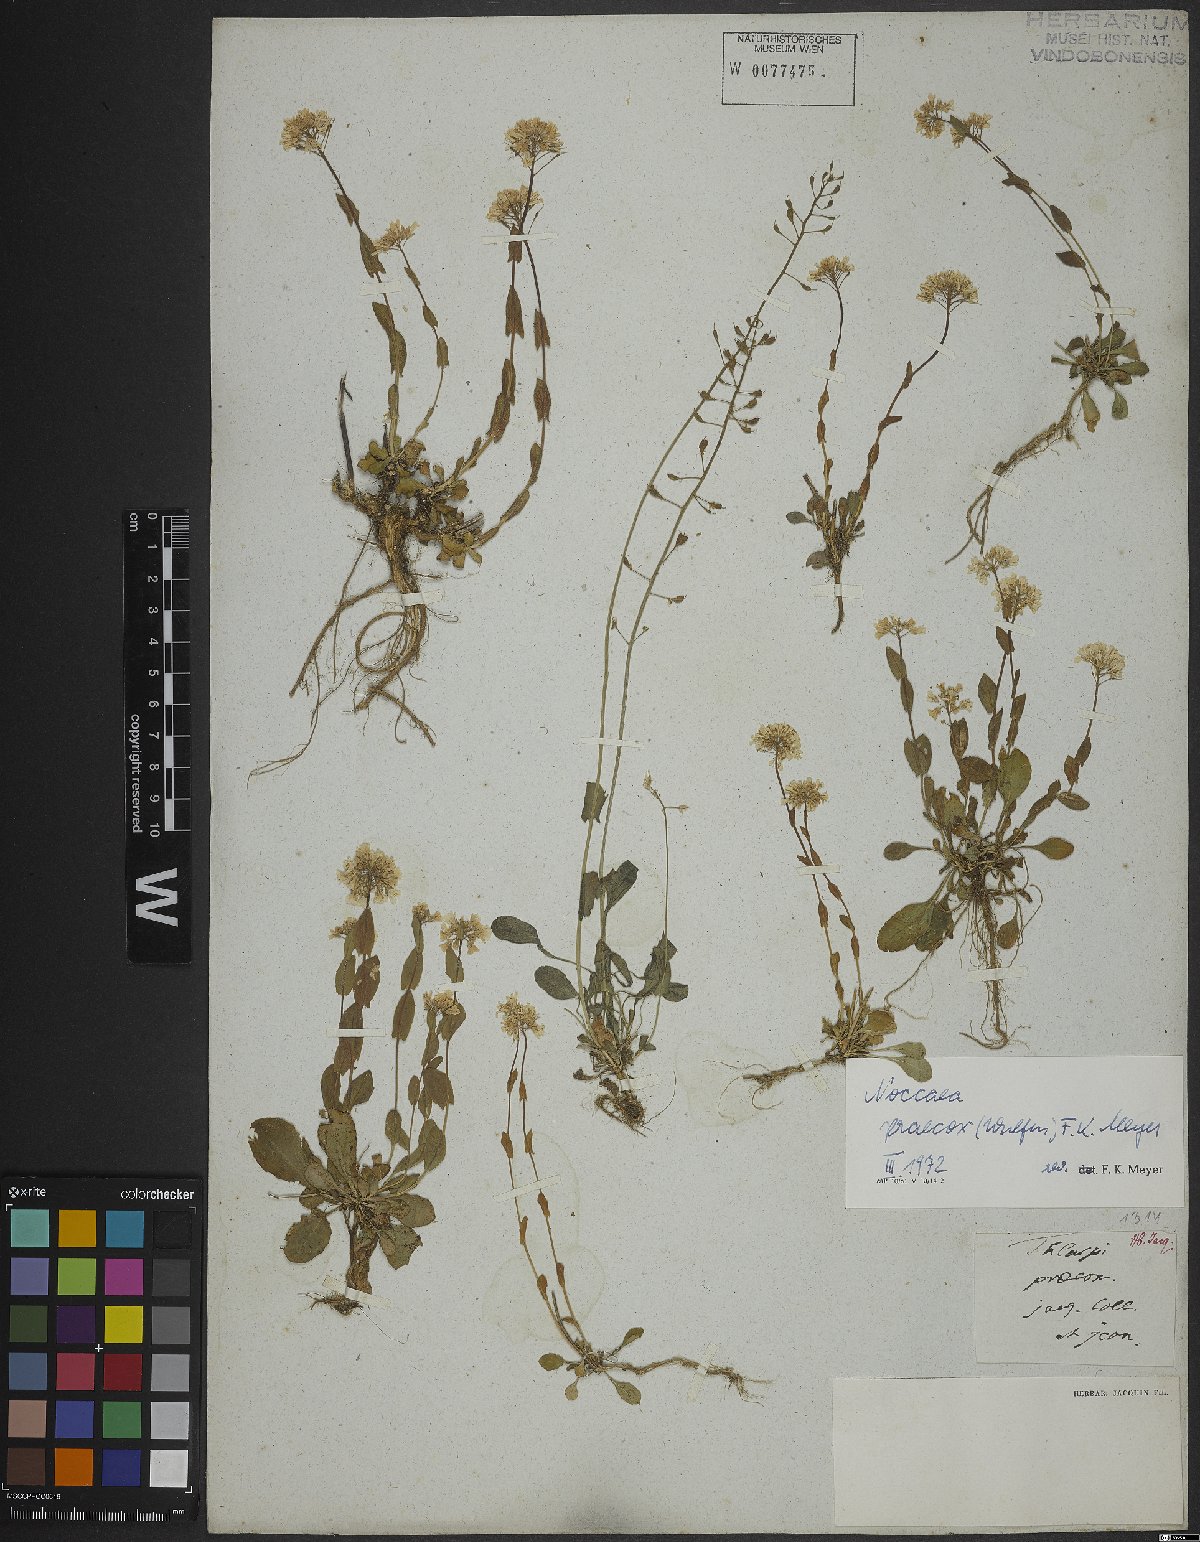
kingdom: Plantae
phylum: Tracheophyta
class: Magnoliopsida
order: Brassicales
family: Brassicaceae
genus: Noccaea
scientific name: Noccaea praecox
